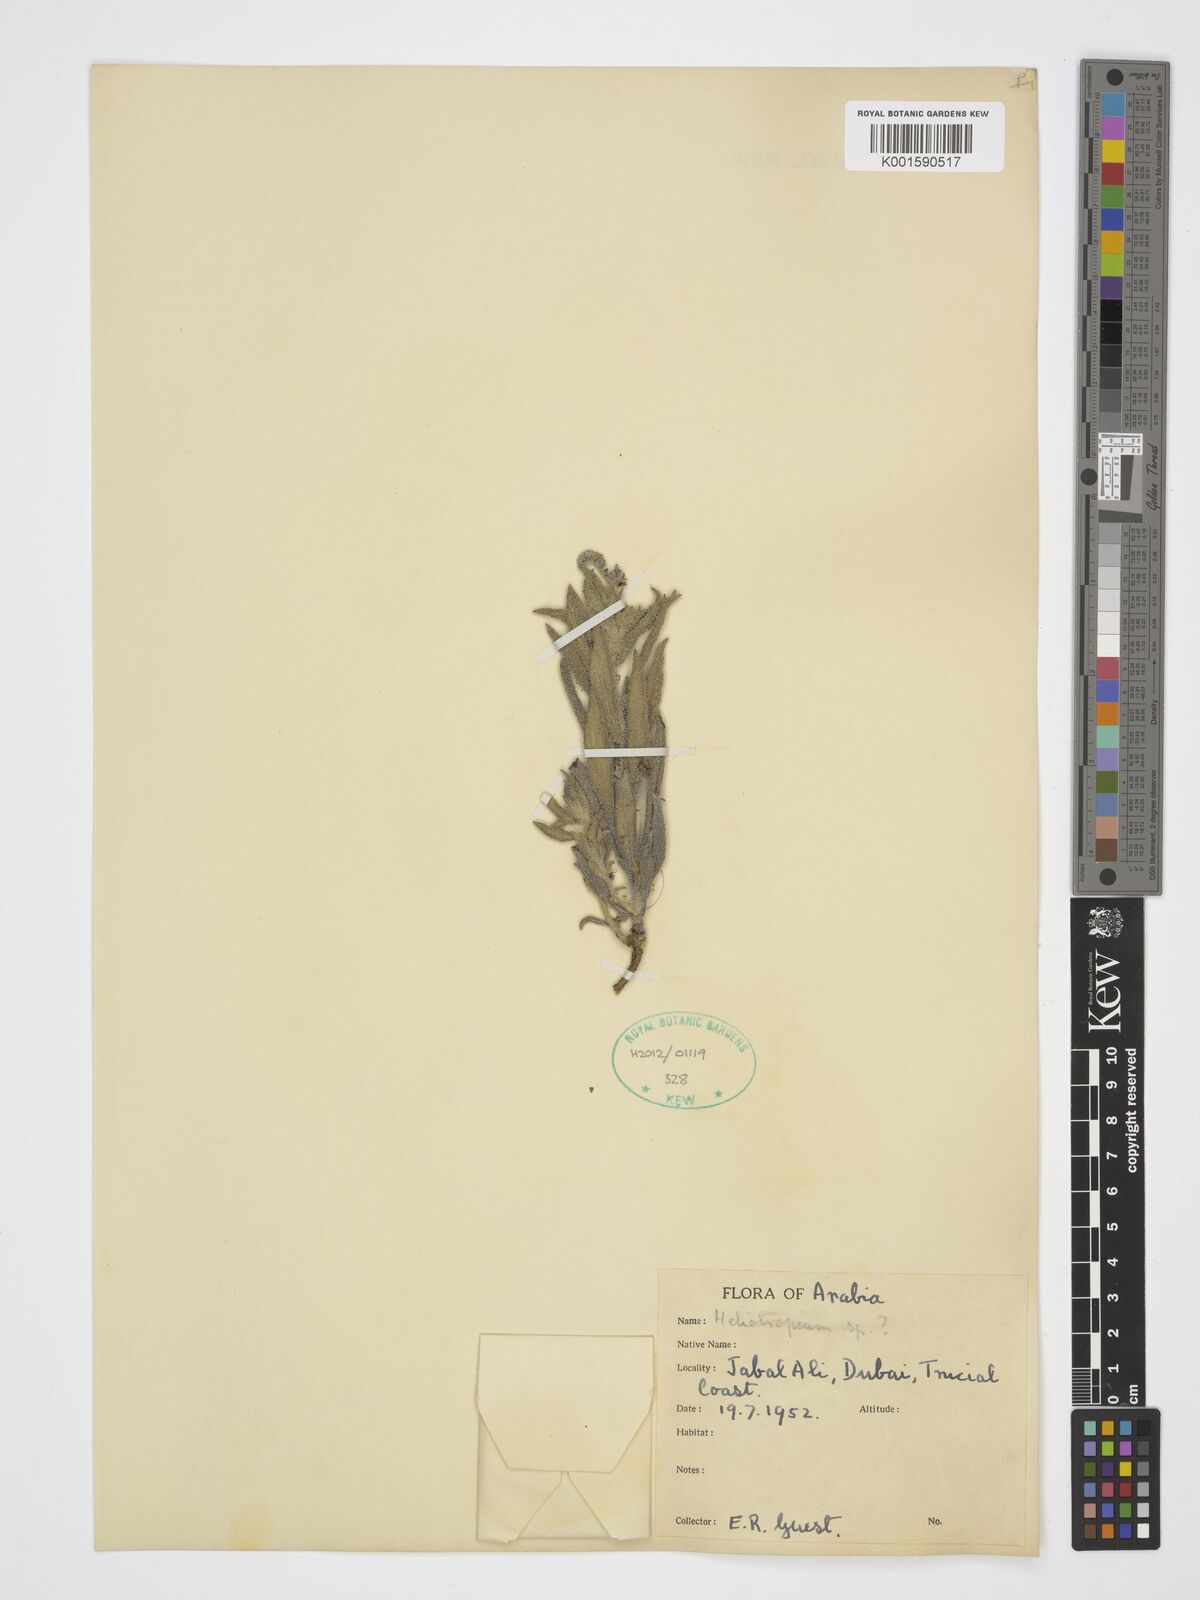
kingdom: Plantae
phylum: Tracheophyta
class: Magnoliopsida
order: Boraginales
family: Heliotropiaceae
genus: Heliotropium
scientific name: Heliotropium
